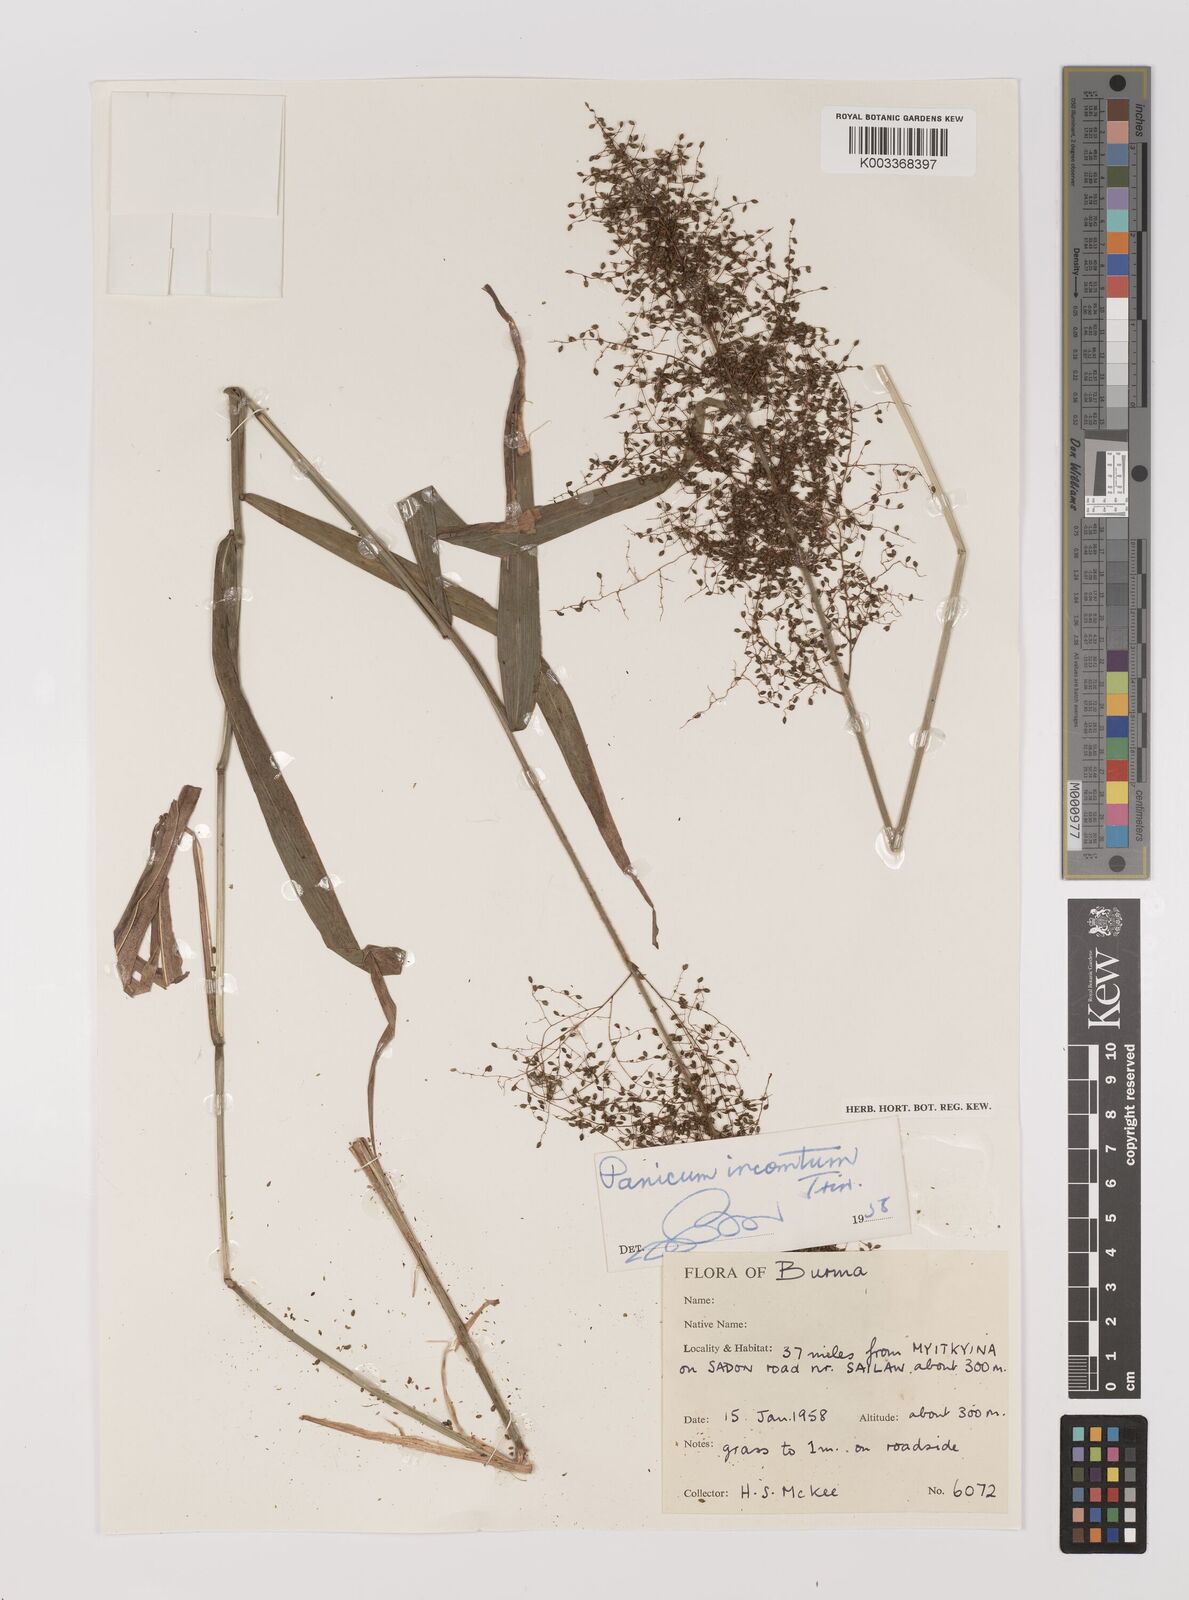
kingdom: Plantae
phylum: Tracheophyta
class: Liliopsida
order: Poales
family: Poaceae
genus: Panicum
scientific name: Panicum incomtum
